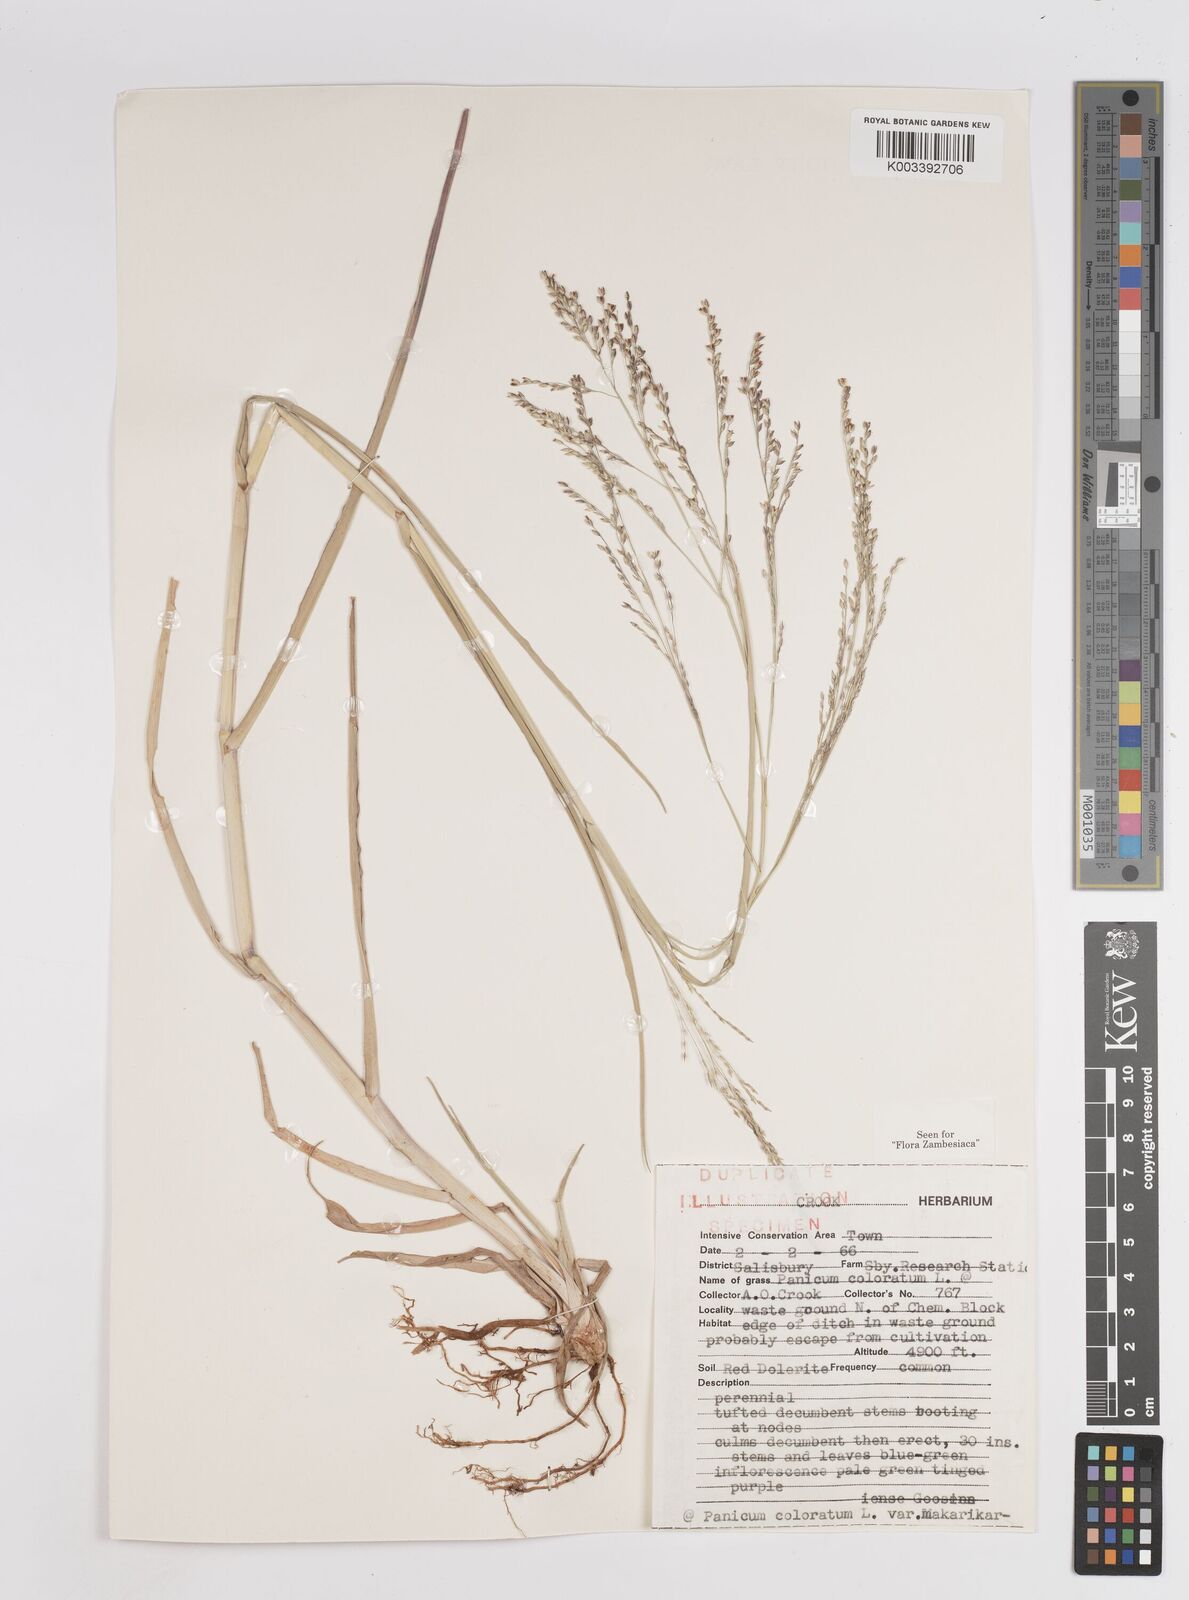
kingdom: Plantae
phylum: Tracheophyta
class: Liliopsida
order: Poales
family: Poaceae
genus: Panicum
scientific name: Panicum coloratum
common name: Kleingrass
